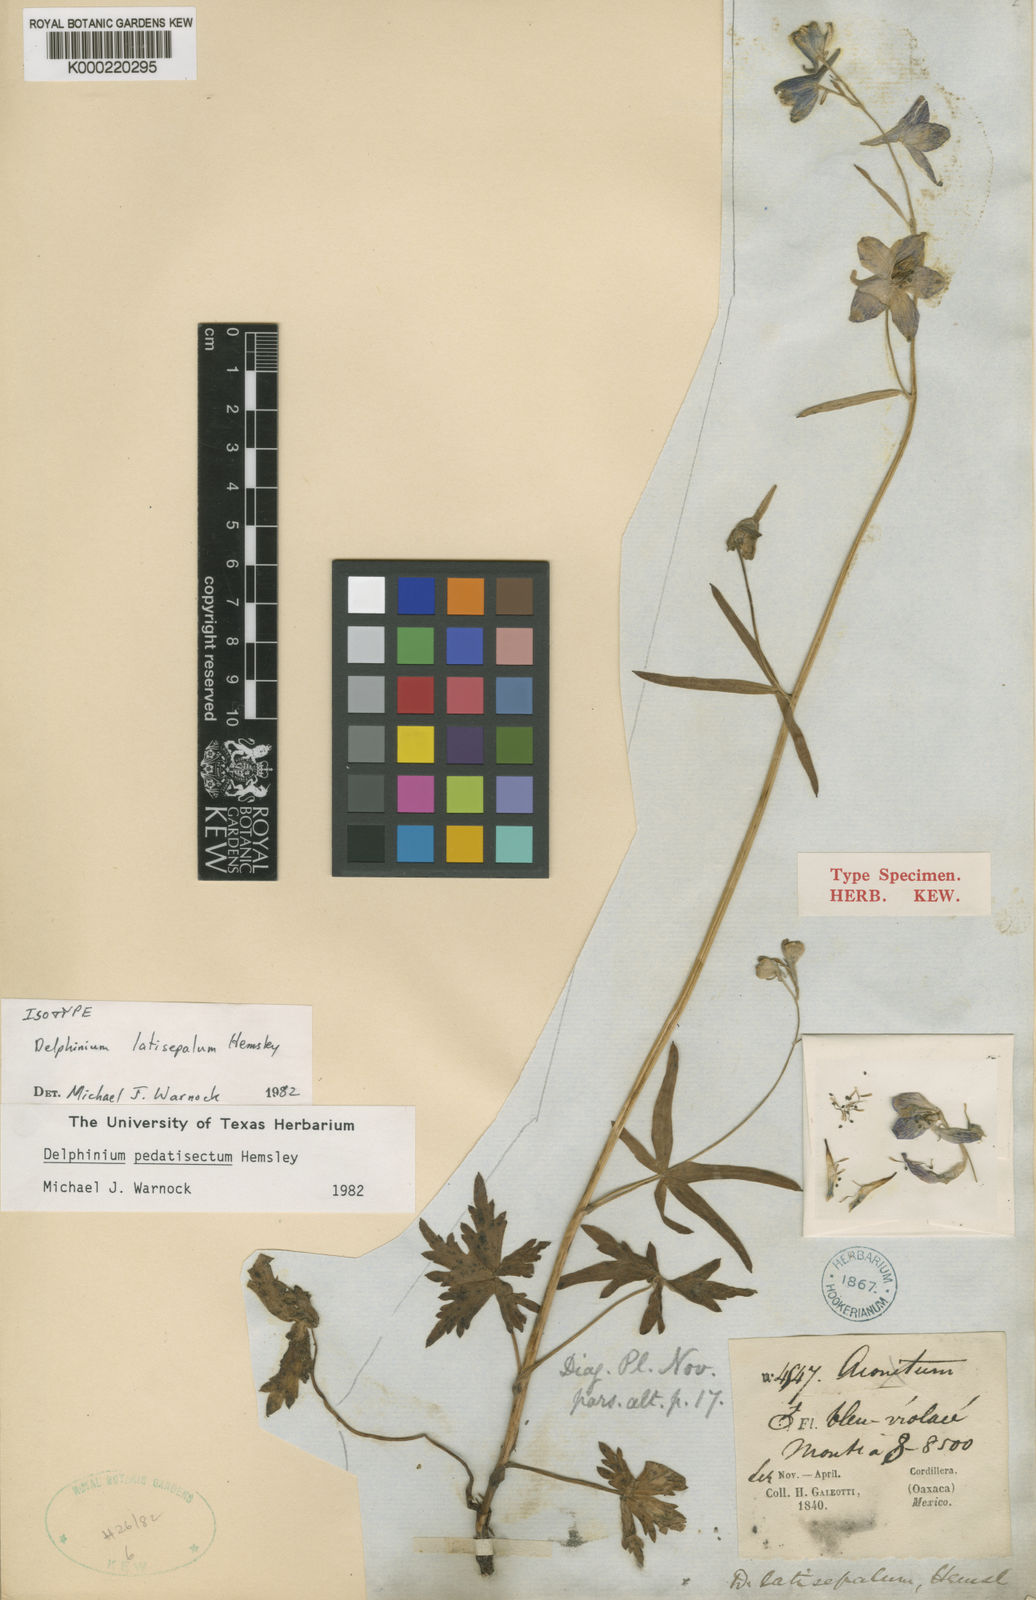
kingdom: Plantae
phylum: Tracheophyta
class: Magnoliopsida
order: Ranunculales
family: Ranunculaceae
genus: Delphinium
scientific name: Delphinium pedatisectum
